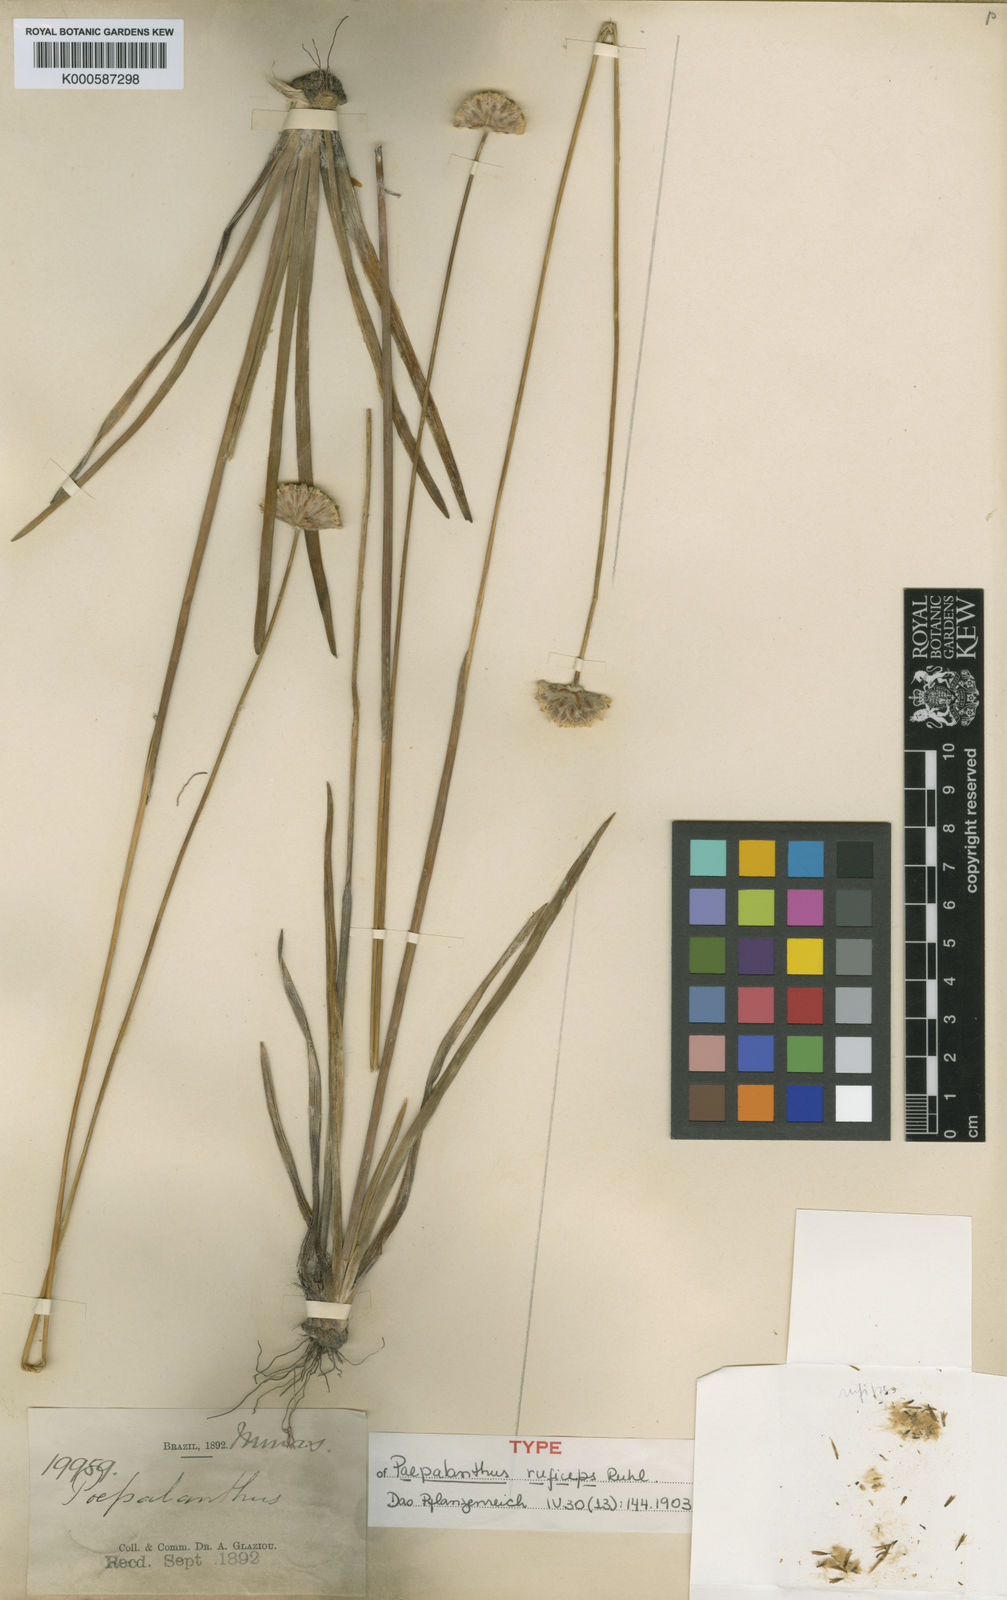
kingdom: Plantae
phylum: Tracheophyta
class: Liliopsida
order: Poales
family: Eriocaulaceae
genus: Paepalanthus
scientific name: Paepalanthus ruficeps
